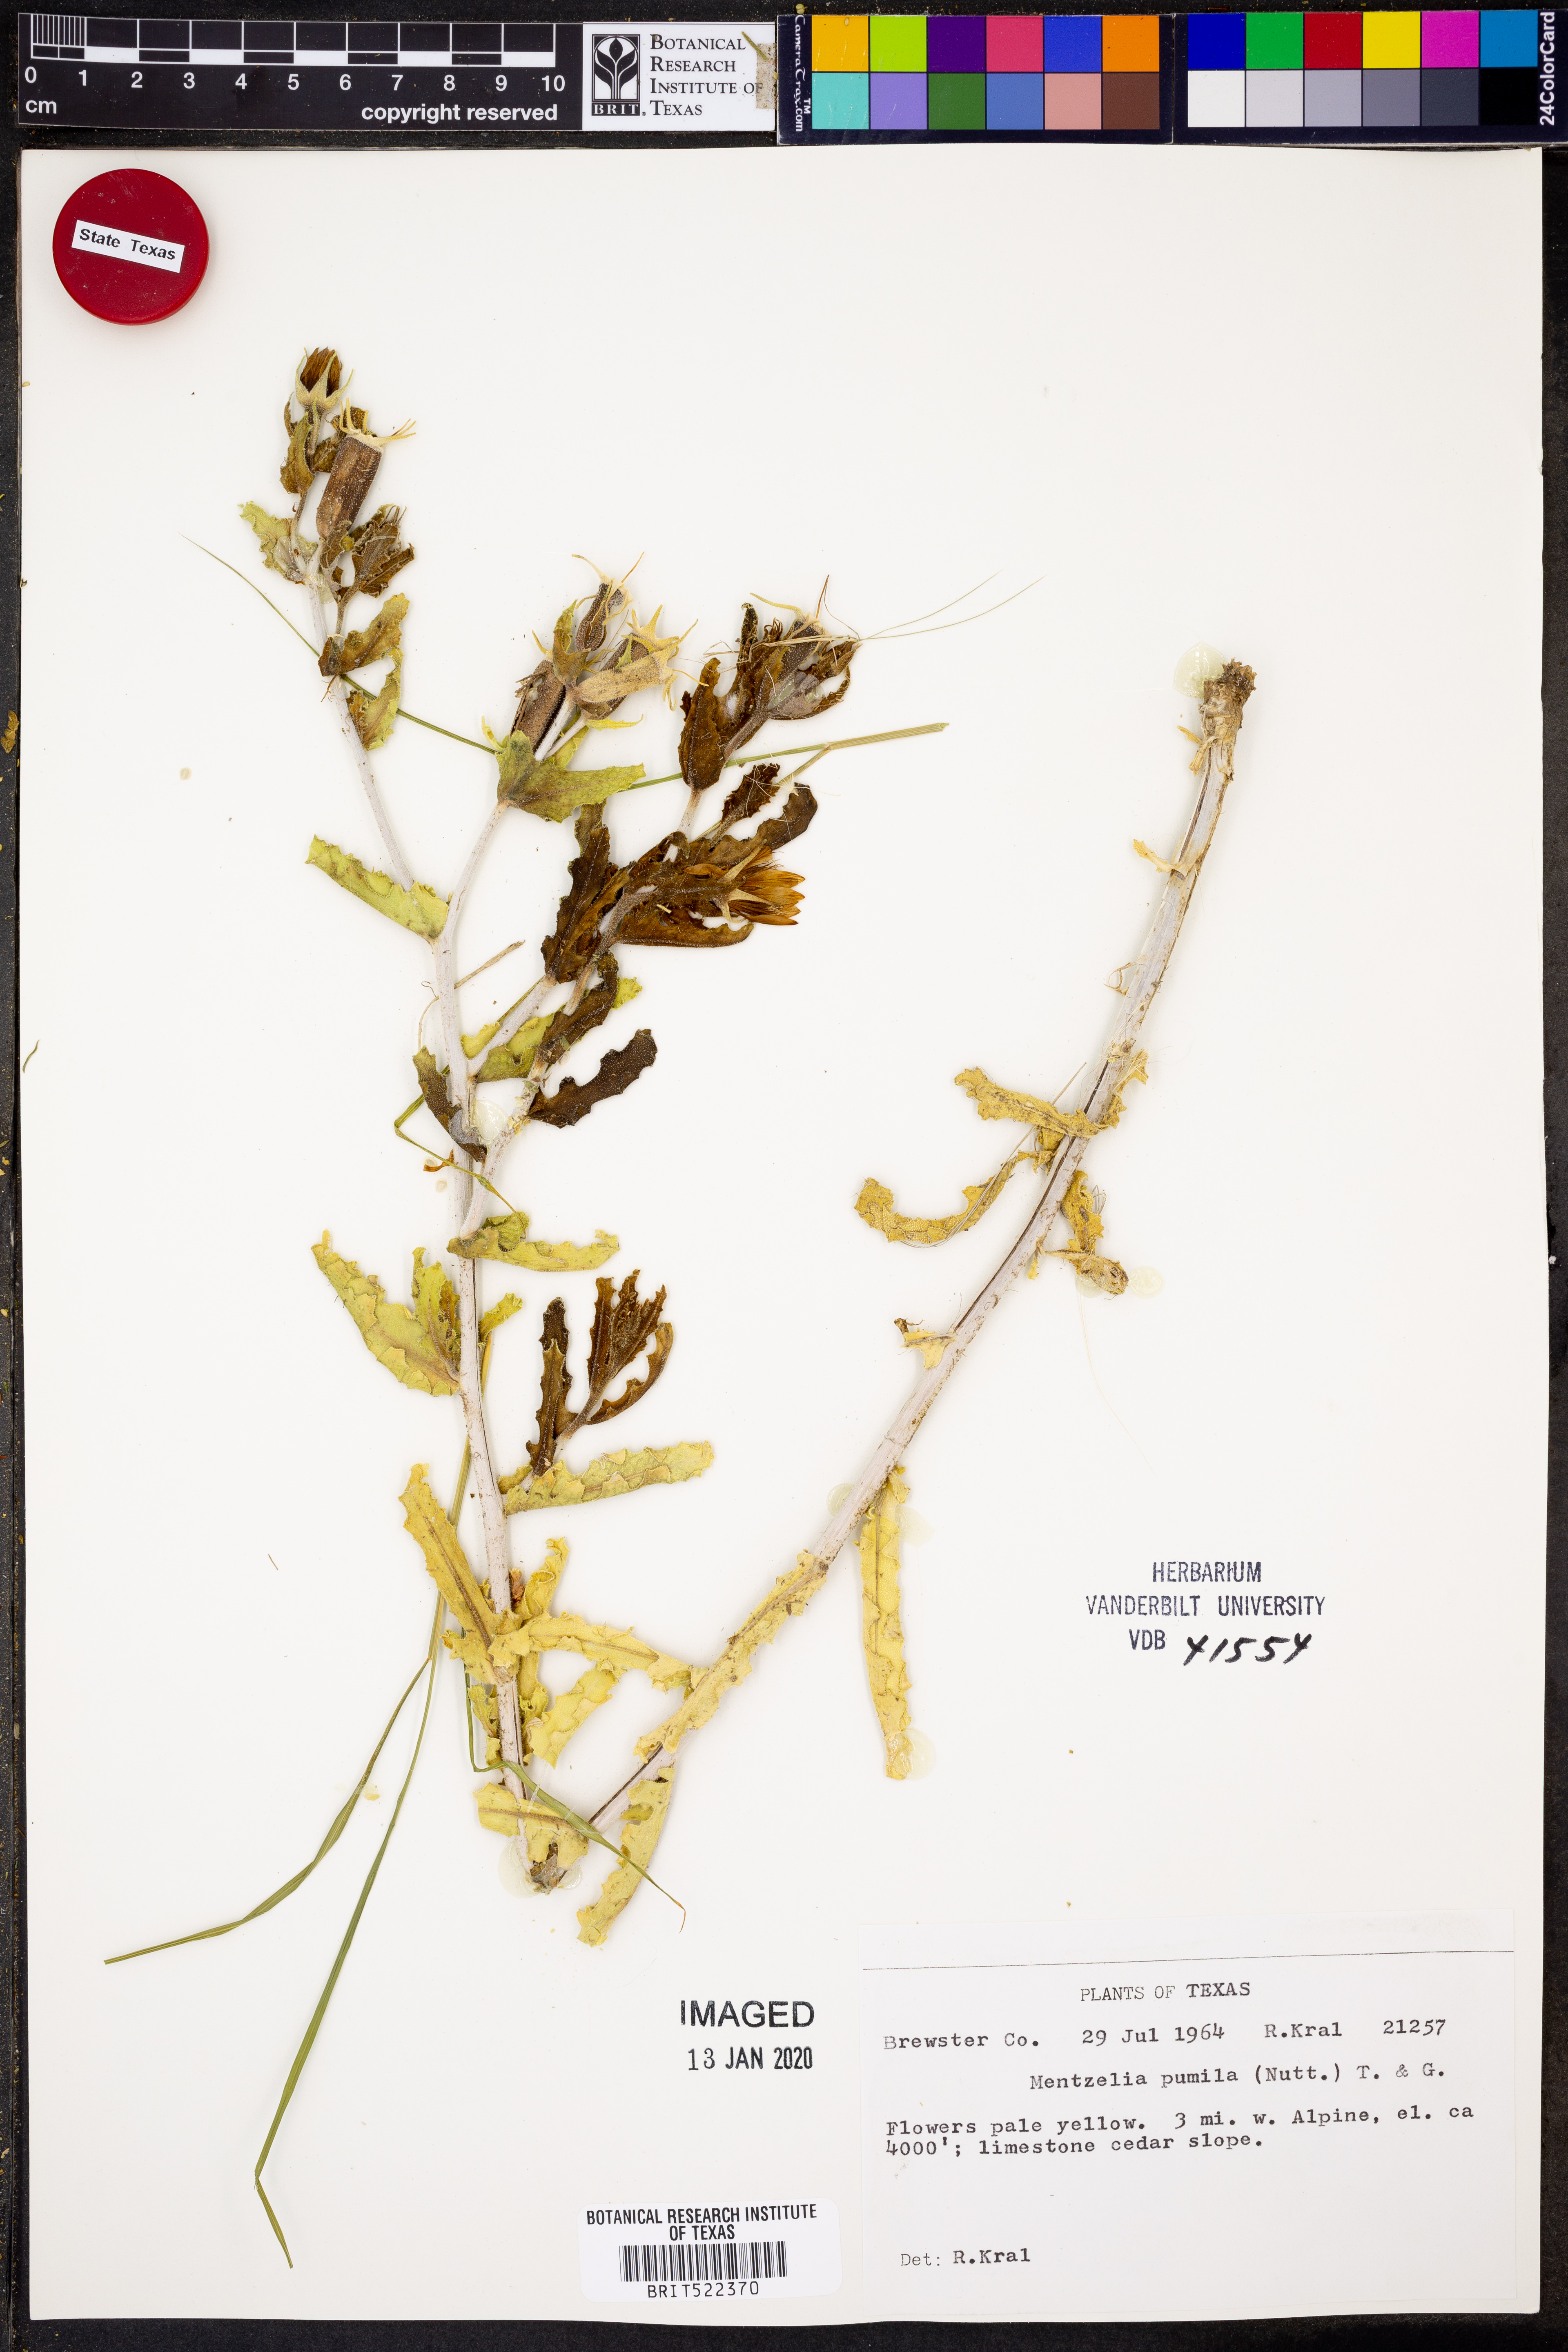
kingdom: Plantae
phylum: Tracheophyta
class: Magnoliopsida
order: Cornales
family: Loasaceae
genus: Mentzelia
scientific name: Mentzelia pumila
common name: Wyoming stickleaf
